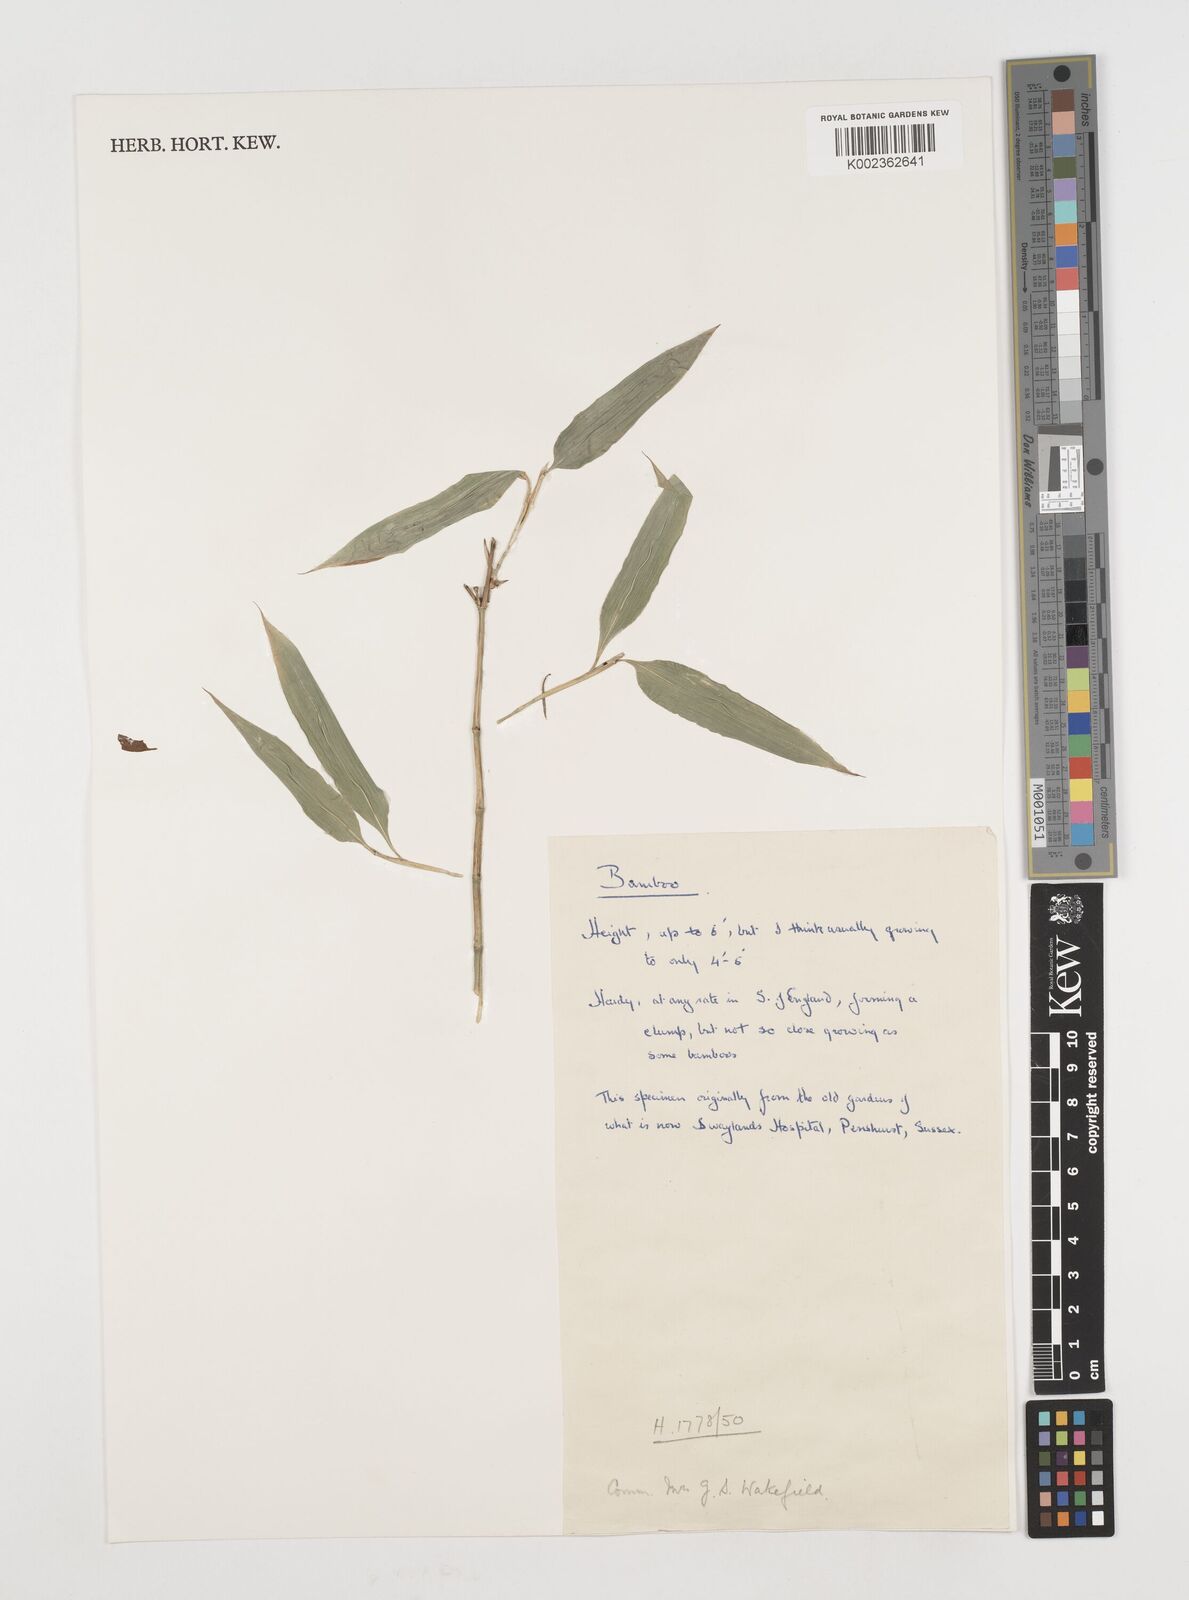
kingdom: Plantae
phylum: Tracheophyta
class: Liliopsida
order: Poales
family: Poaceae
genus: Shibataea
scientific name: Shibataea kumasasa
